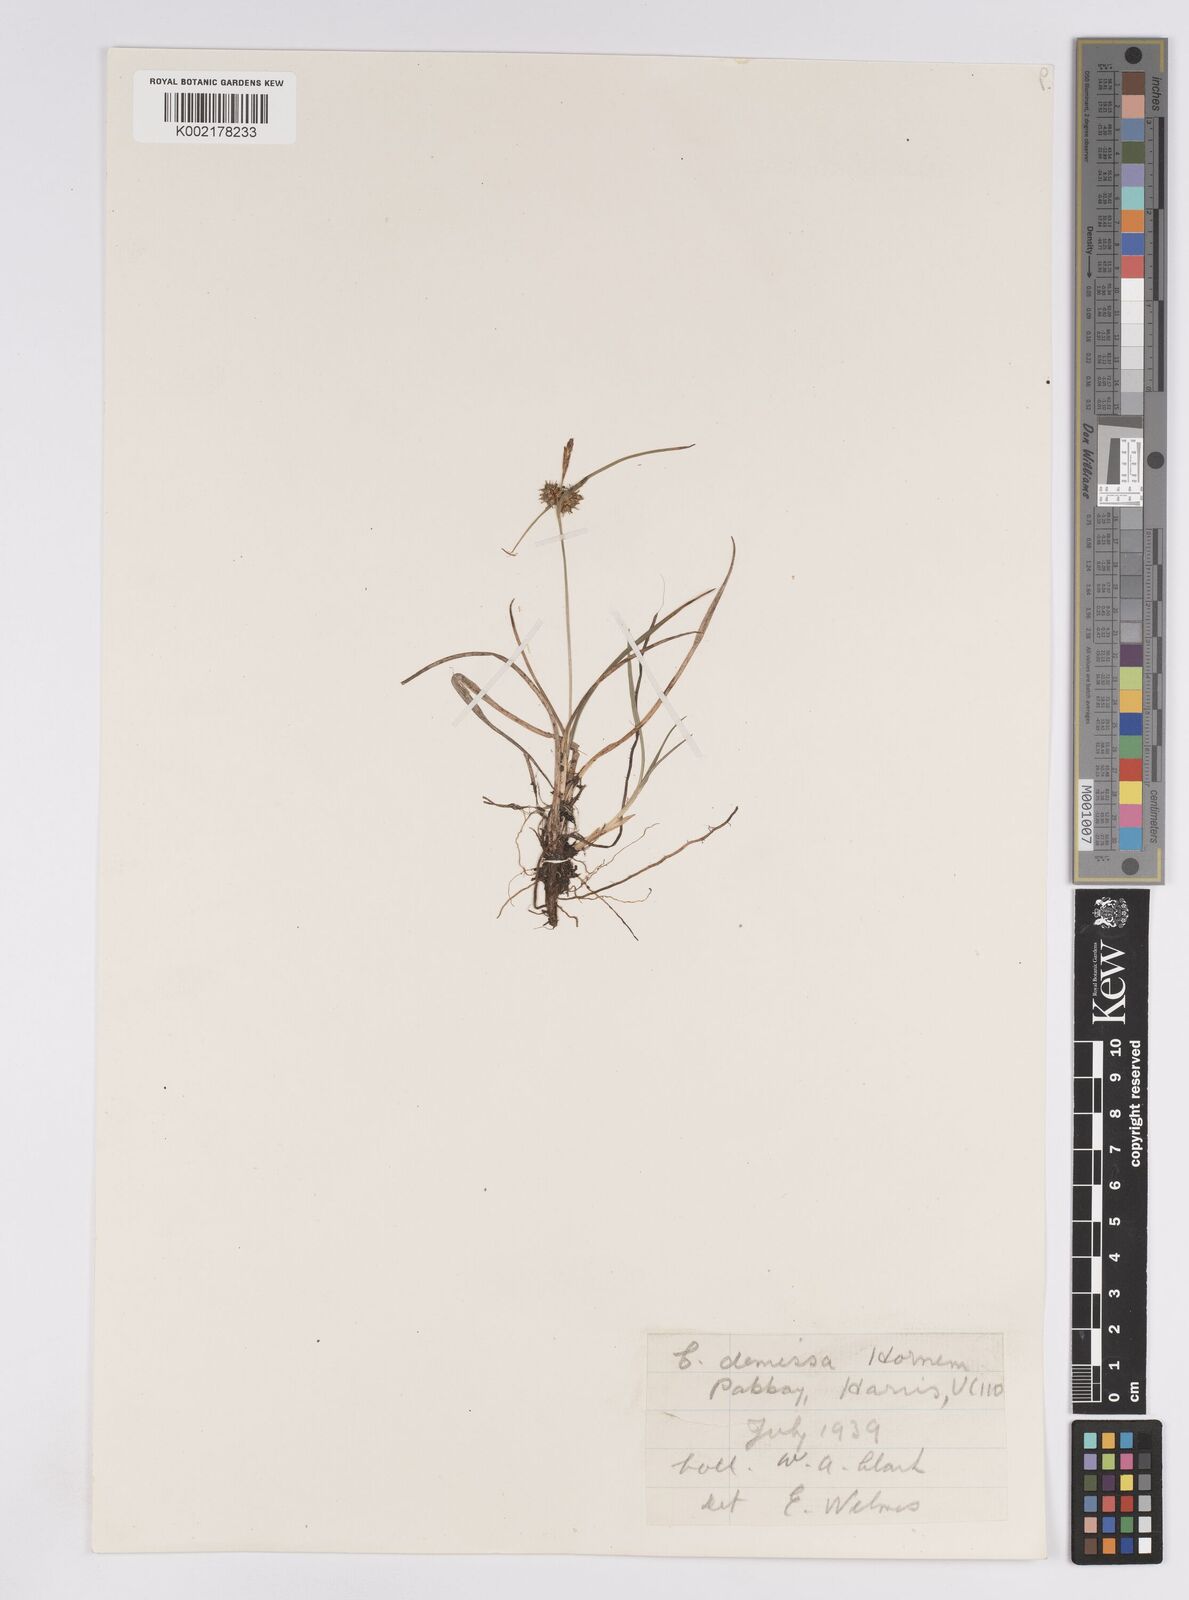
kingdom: Plantae
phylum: Tracheophyta
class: Liliopsida
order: Poales
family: Cyperaceae
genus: Carex
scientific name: Carex demissa
